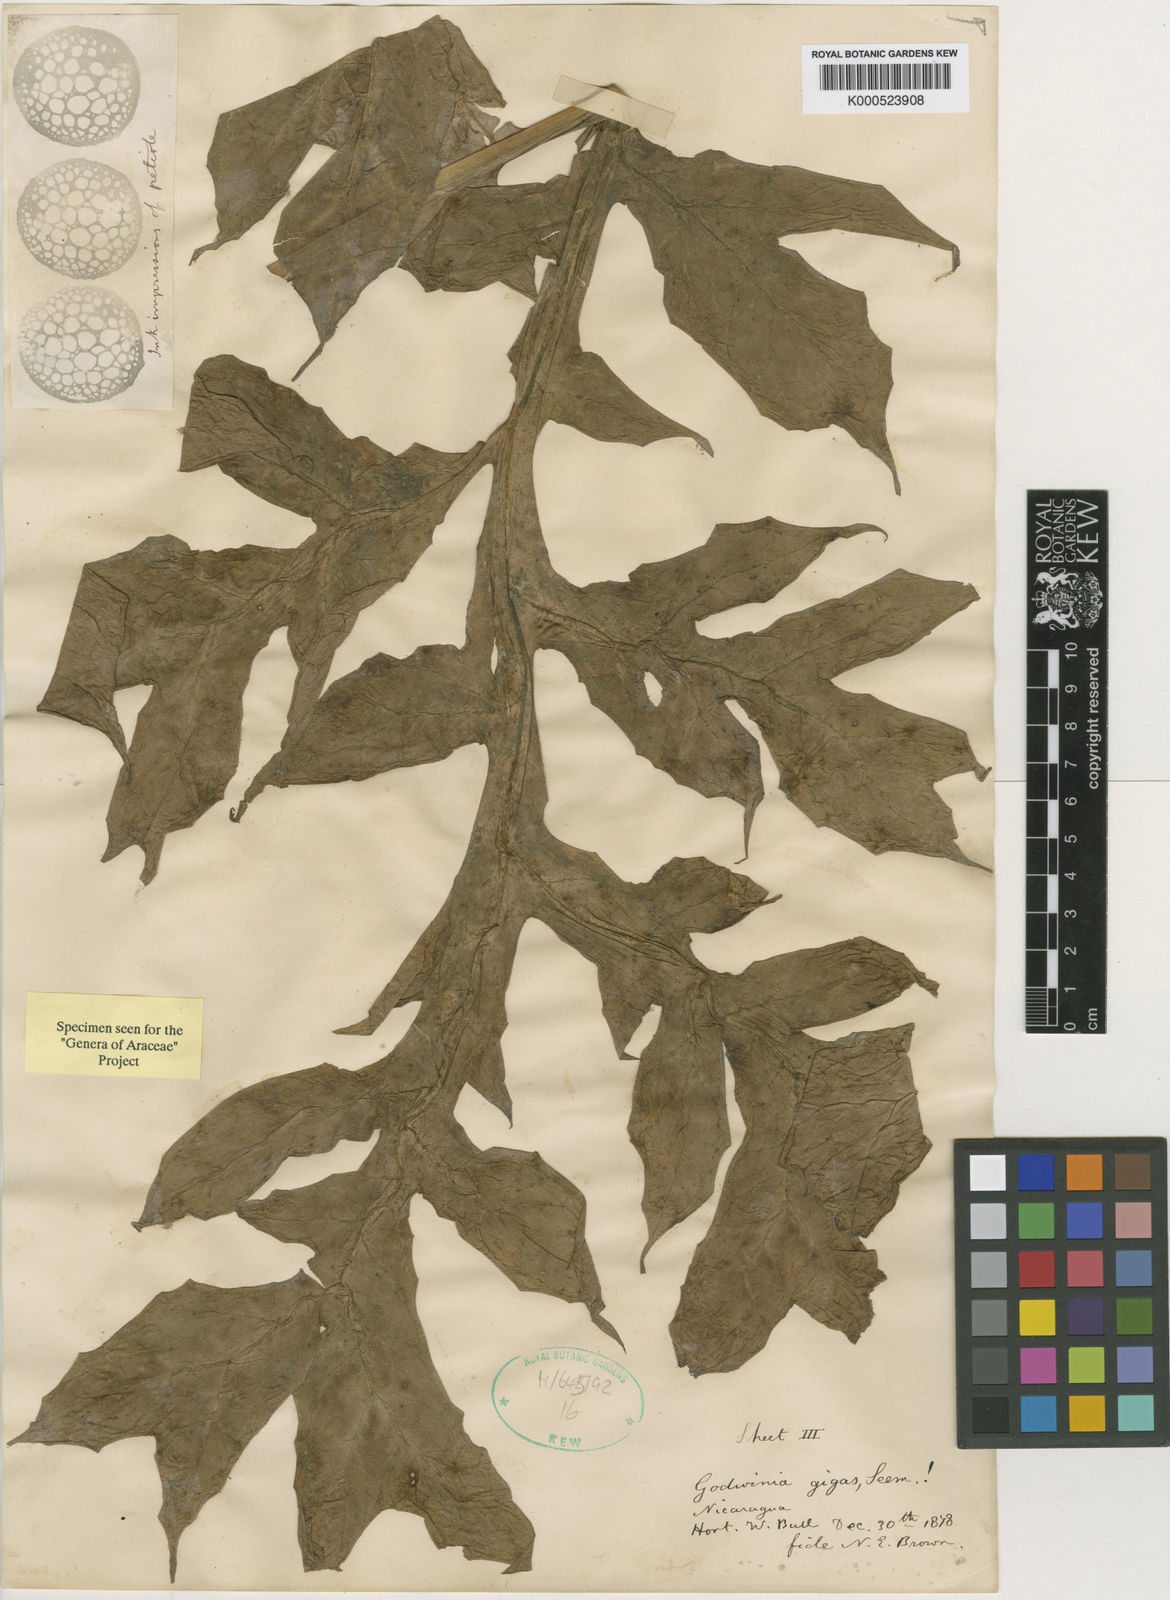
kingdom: Plantae
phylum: Tracheophyta
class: Liliopsida
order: Alismatales
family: Araceae
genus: Dracontium
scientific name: Dracontium gigas
